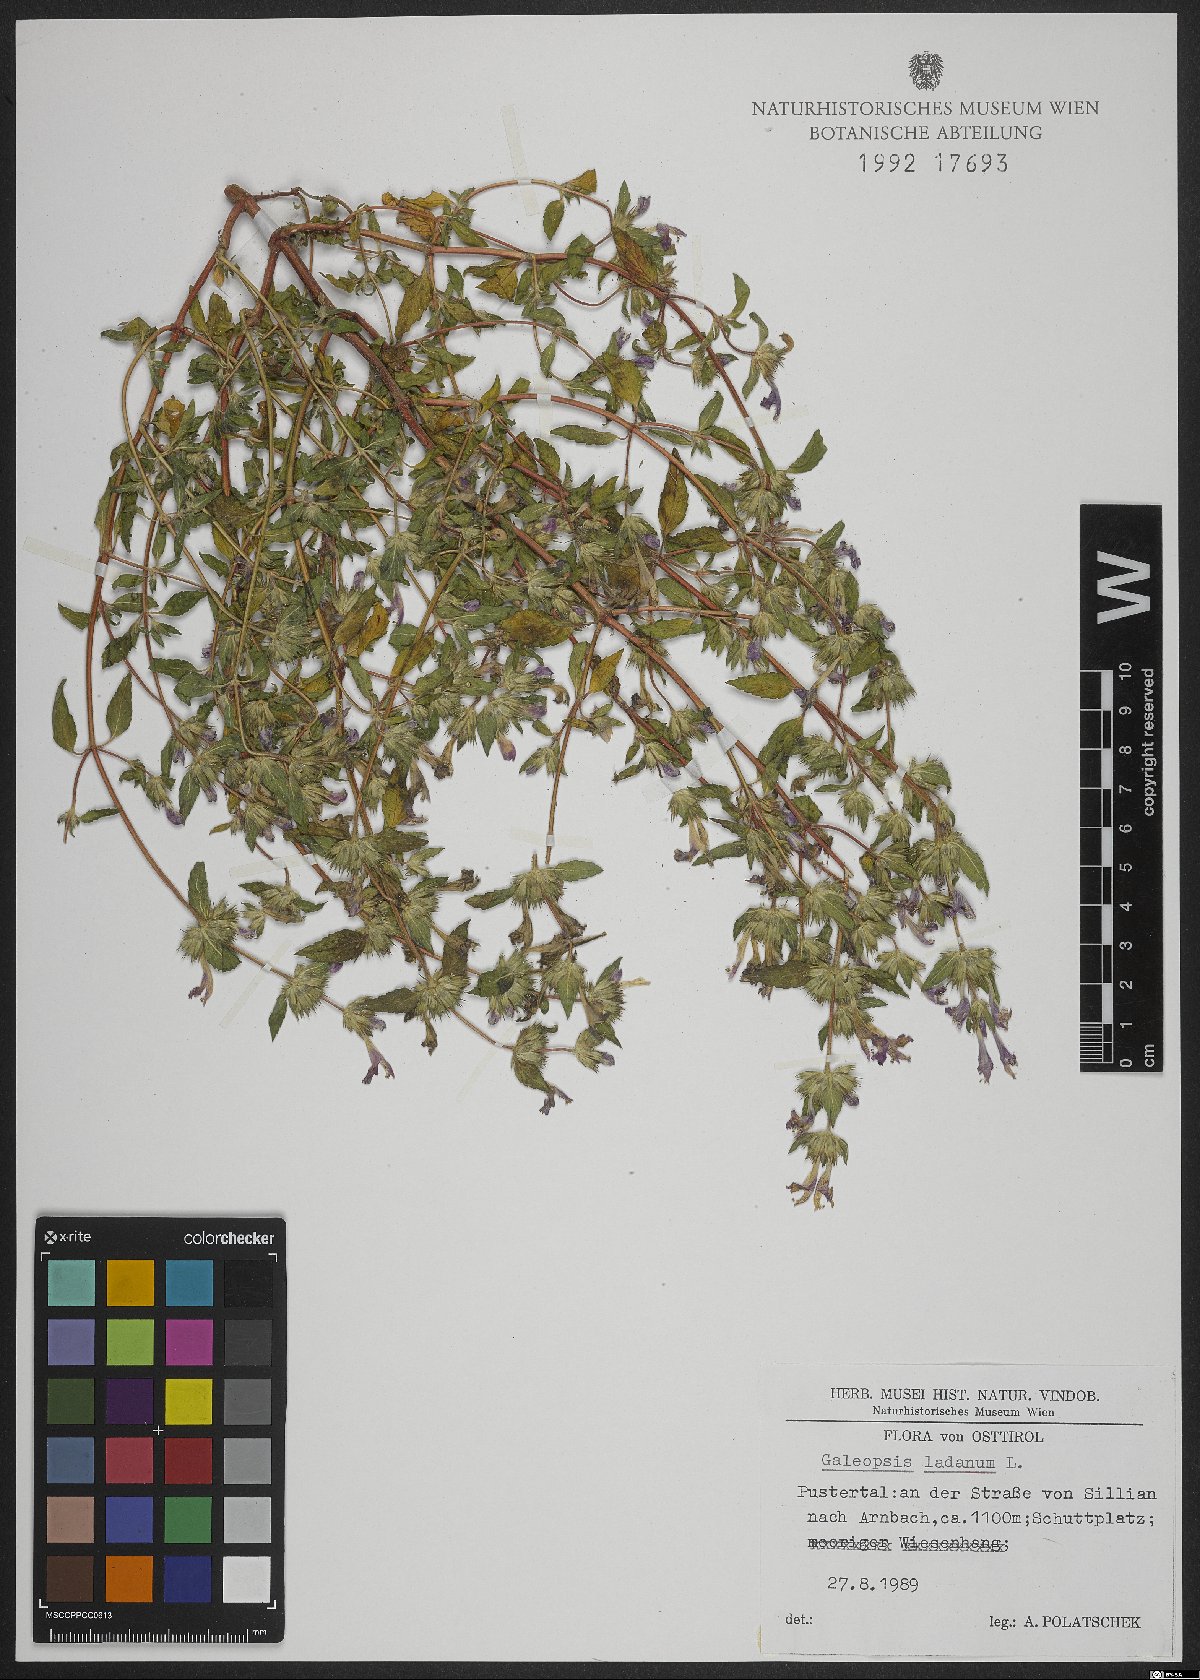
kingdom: Plantae
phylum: Tracheophyta
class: Magnoliopsida
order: Lamiales
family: Lamiaceae
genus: Galeopsis
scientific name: Galeopsis ladanum
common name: Broad-leaved hemp-nettle
